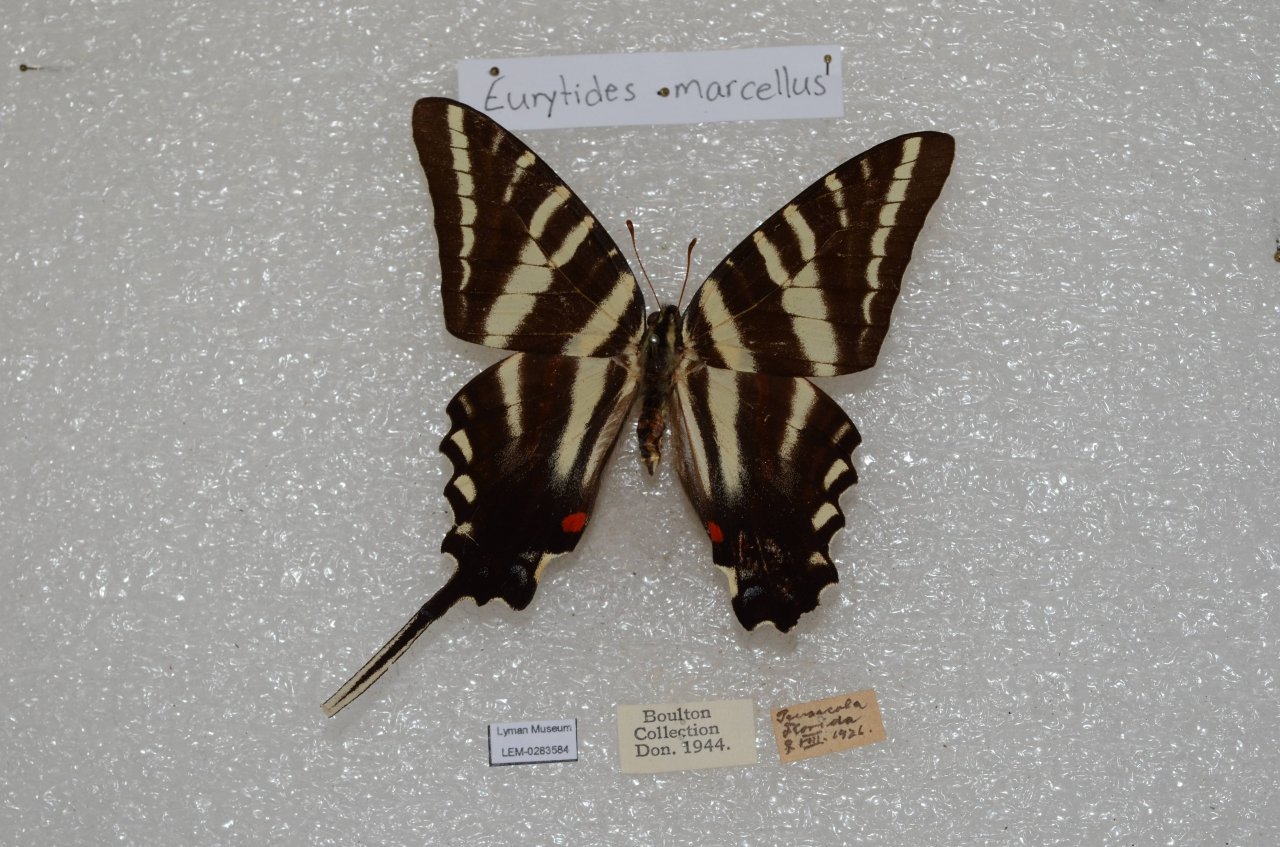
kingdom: Animalia
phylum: Arthropoda
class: Insecta
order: Lepidoptera
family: Papilionidae
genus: Protographium
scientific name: Protographium marcellus
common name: Zebra Swallowtail
